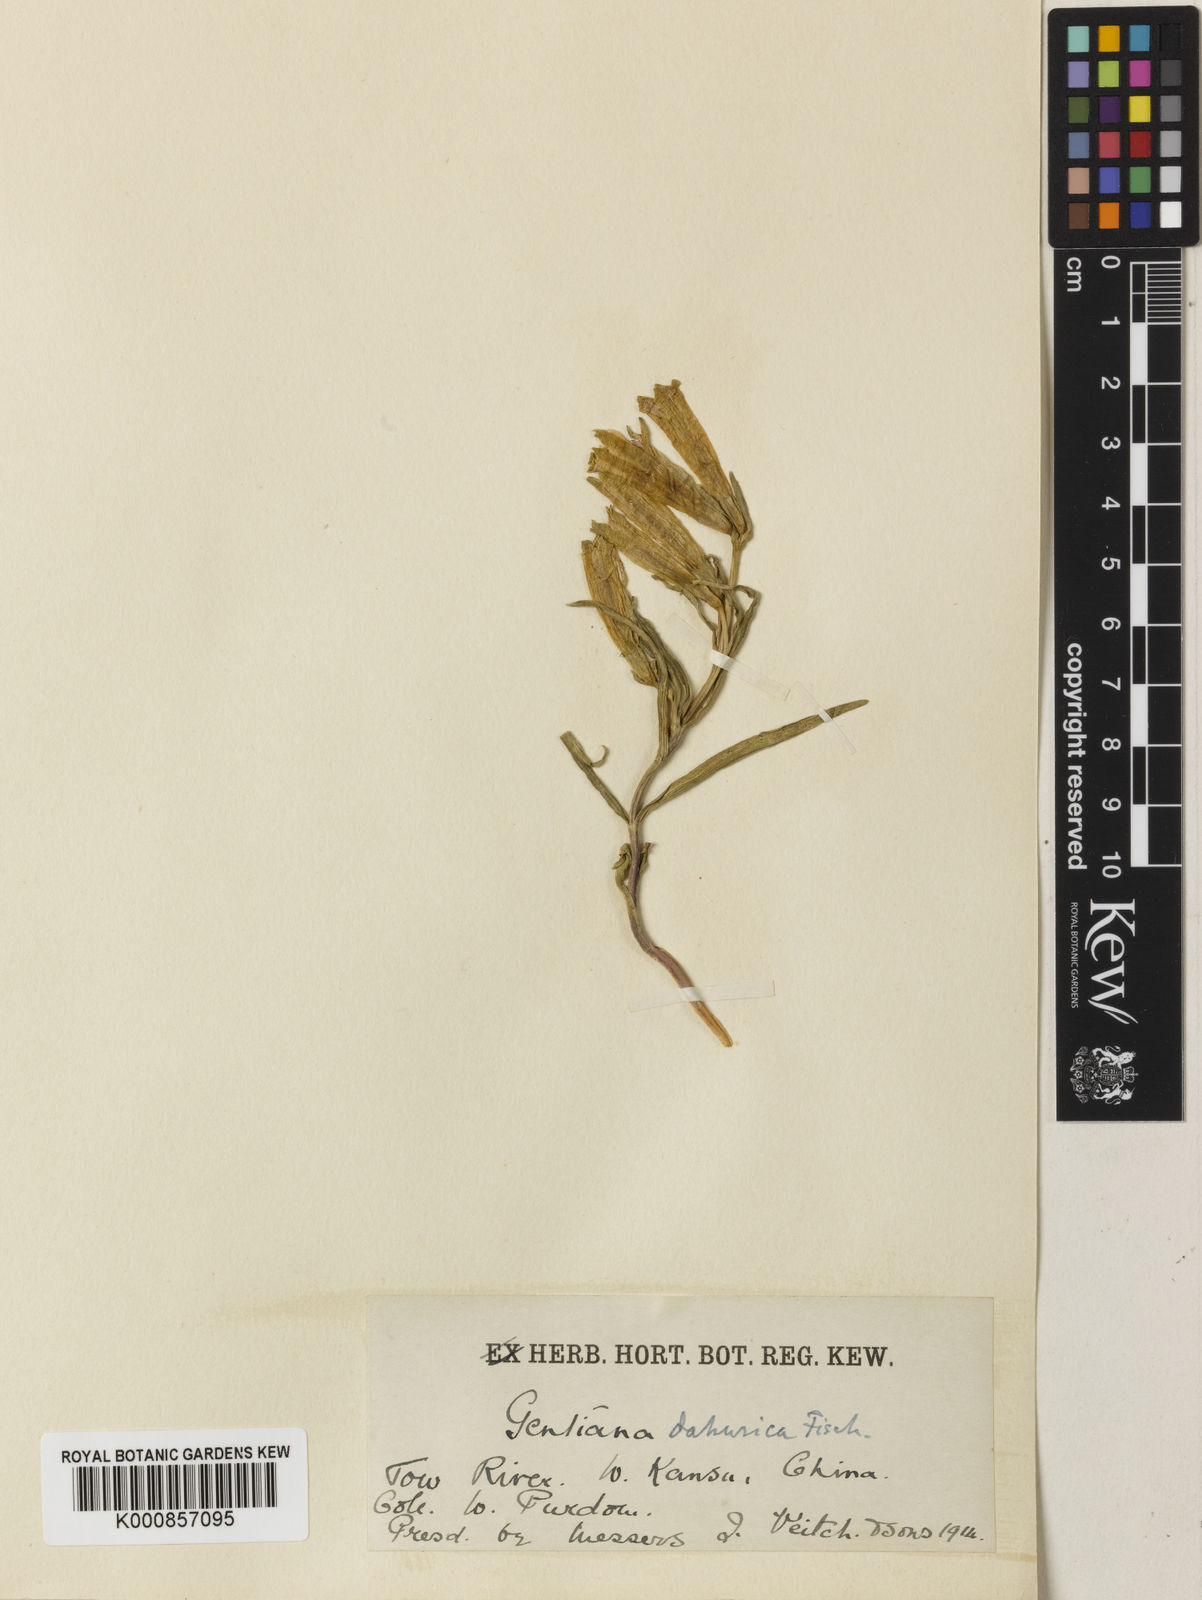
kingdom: Plantae
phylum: Tracheophyta
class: Magnoliopsida
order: Gentianales
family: Gentianaceae
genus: Gentiana
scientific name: Gentiana dahurica
